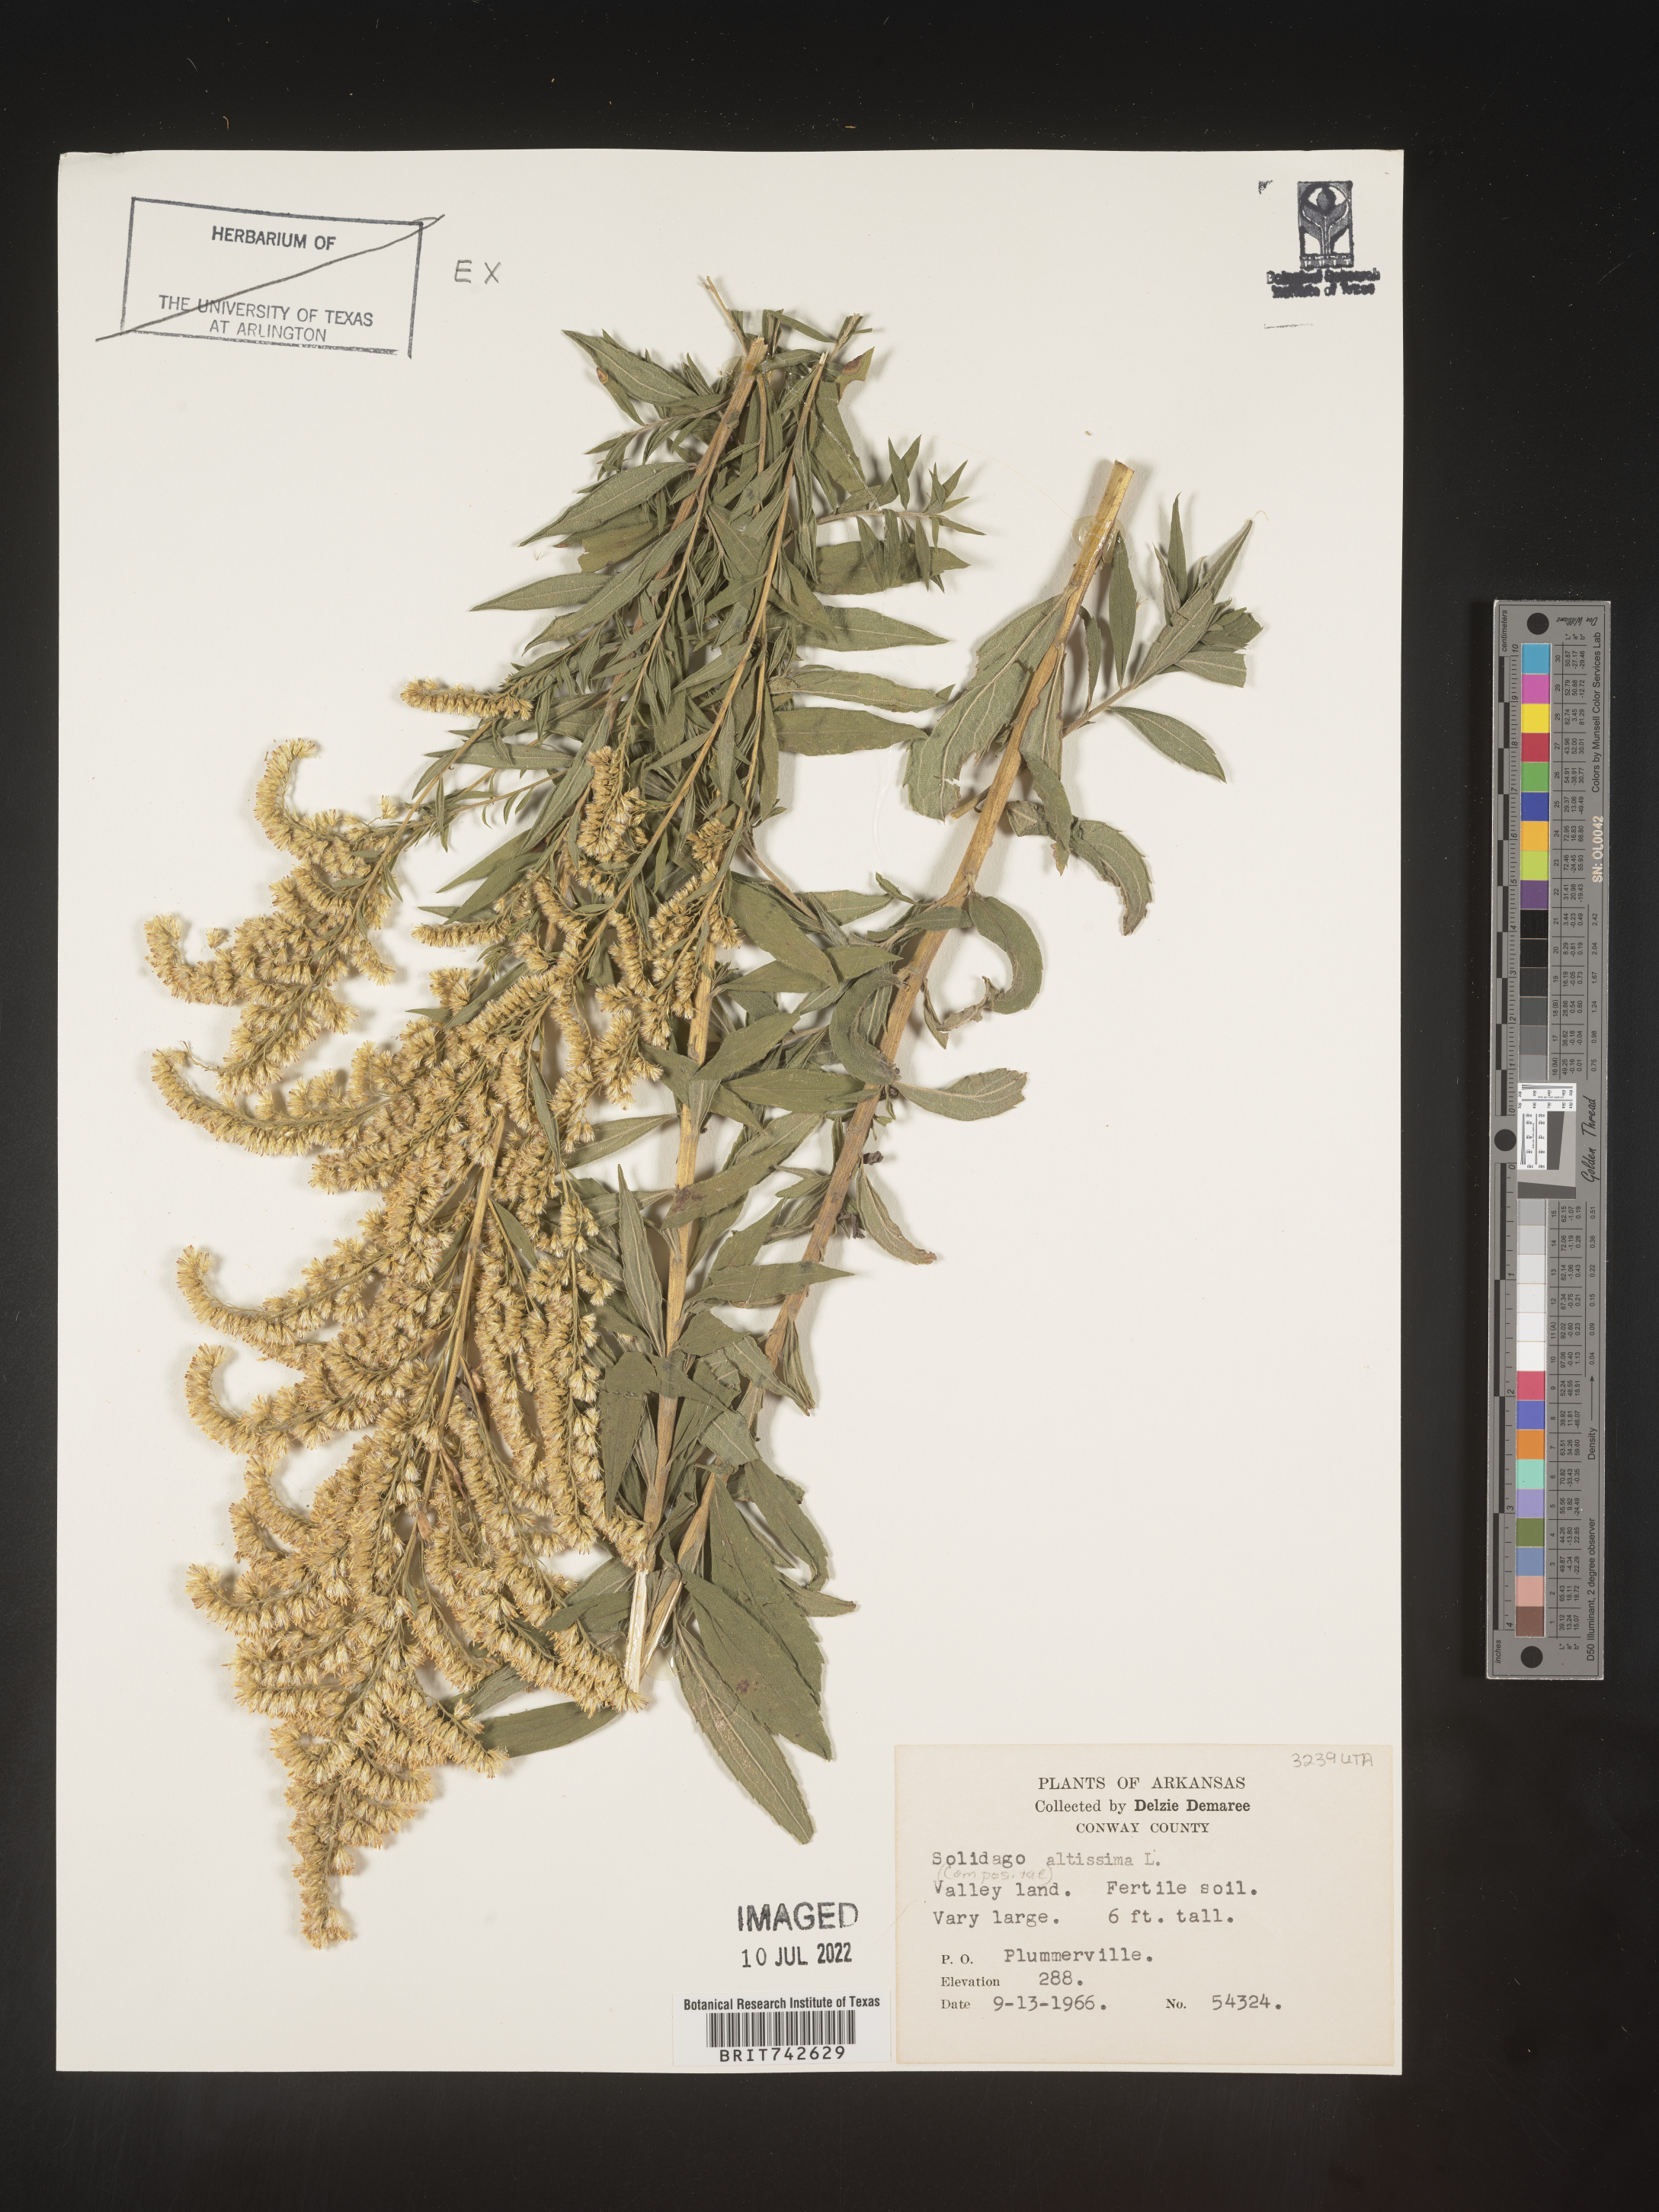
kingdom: Plantae
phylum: Tracheophyta
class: Magnoliopsida
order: Asterales
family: Asteraceae
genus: Solidago
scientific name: Solidago altissima
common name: Late goldenrod
